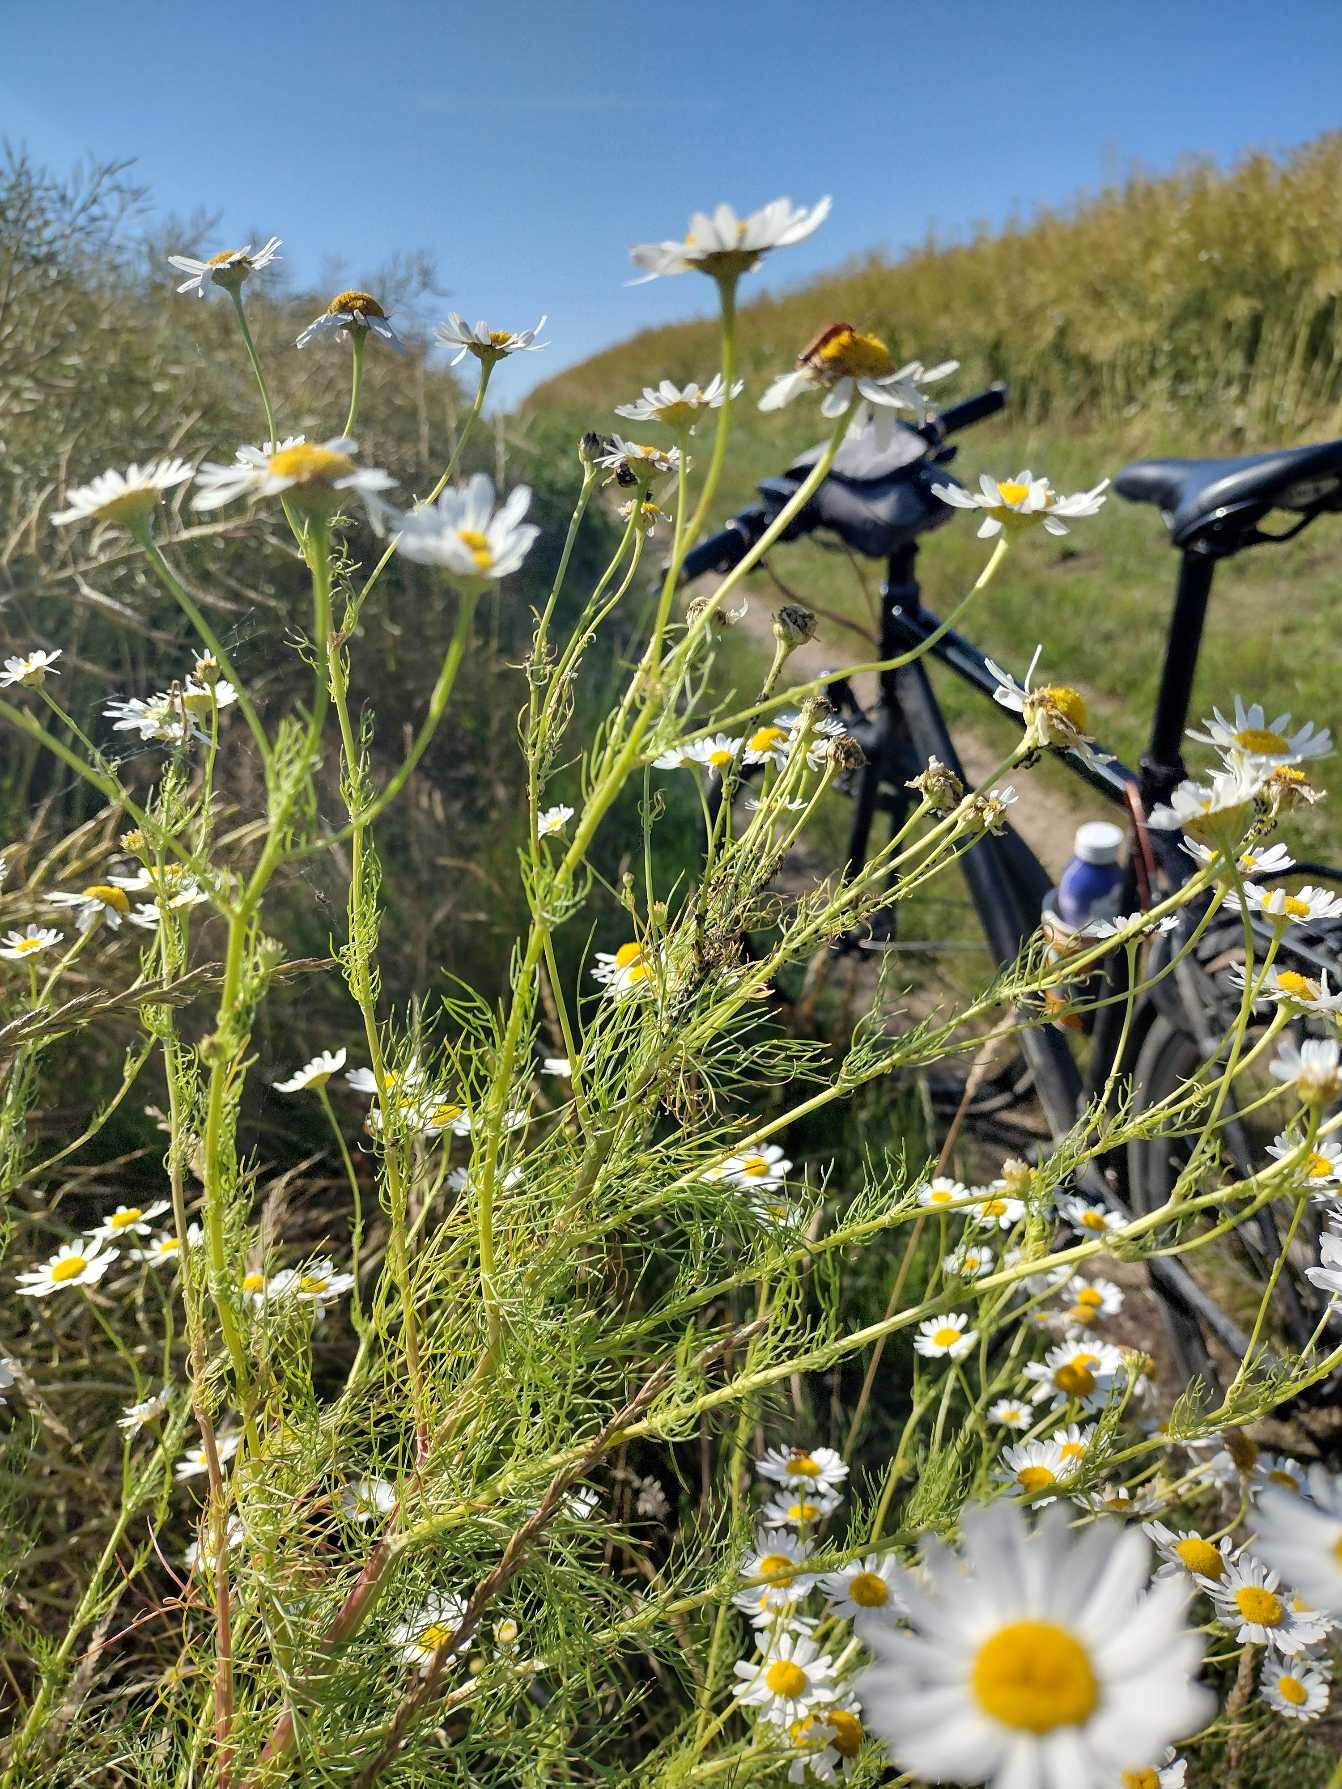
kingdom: Plantae
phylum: Tracheophyta
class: Magnoliopsida
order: Asterales
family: Asteraceae
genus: Tripleurospermum
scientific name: Tripleurospermum inodorum
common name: Lugtløs kamille
